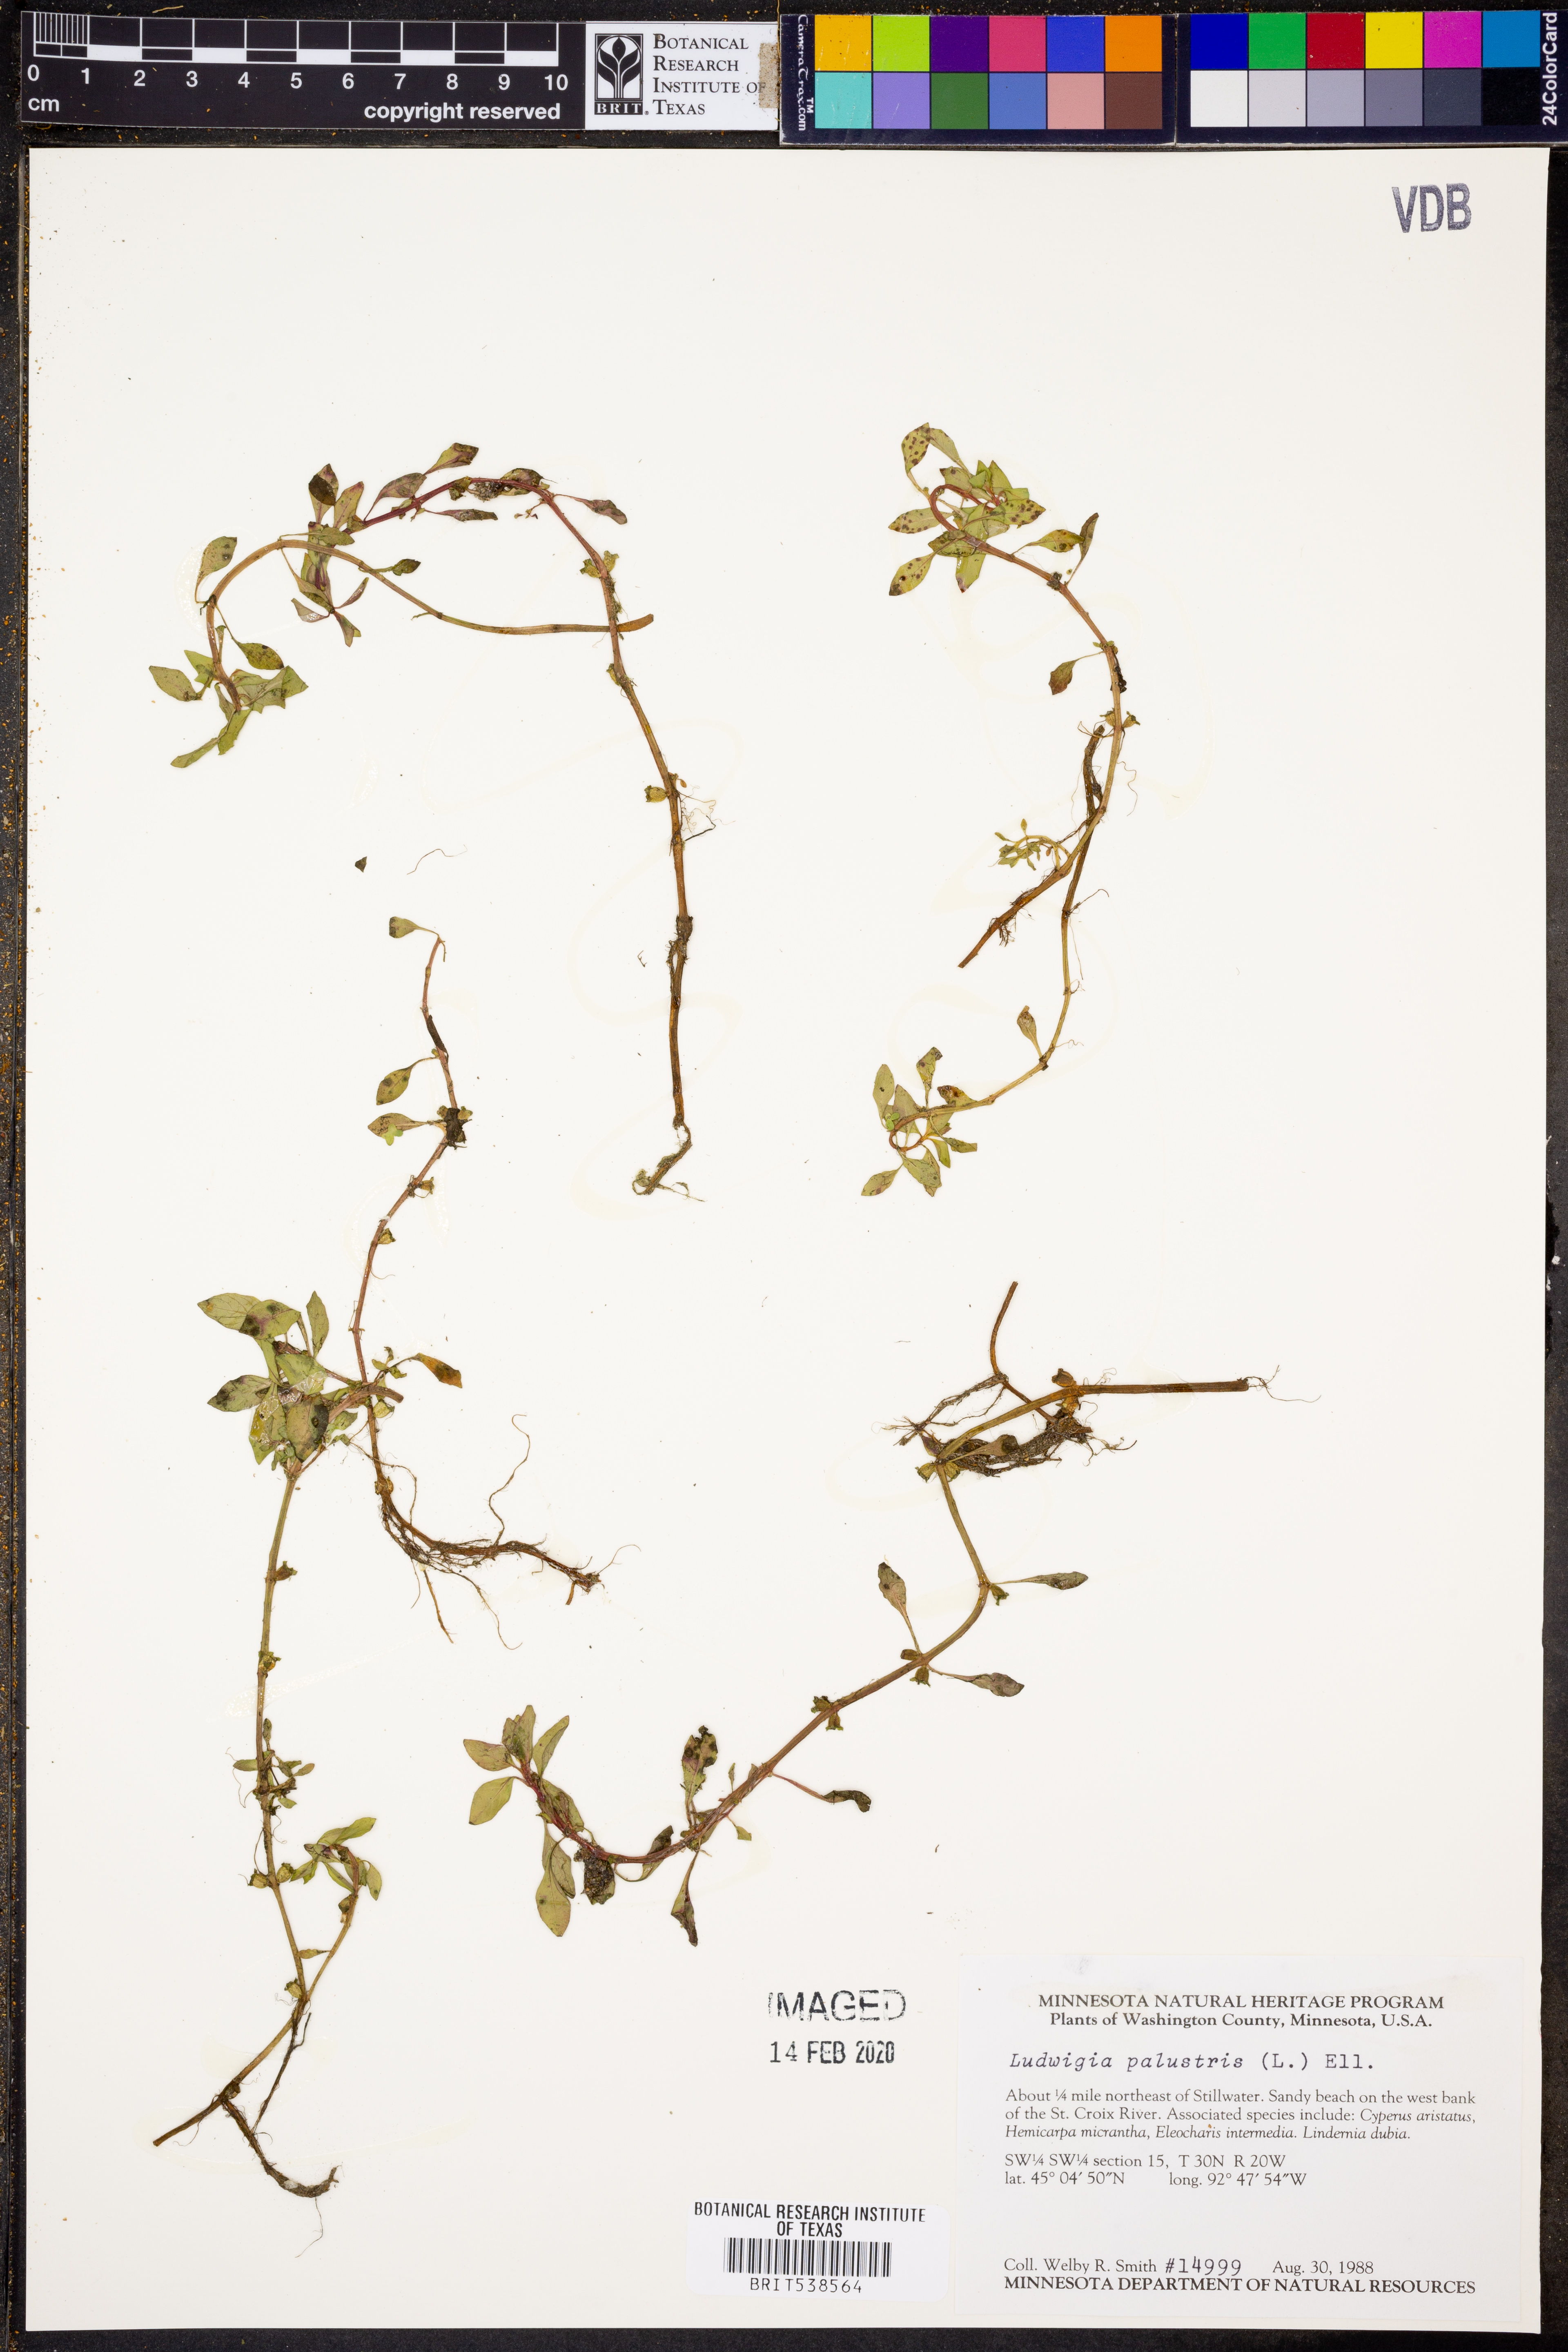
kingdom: Plantae
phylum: Tracheophyta
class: Magnoliopsida
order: Myrtales
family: Onagraceae
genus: Ludwigia
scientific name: Ludwigia palustris
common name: Hampshire-purslane
